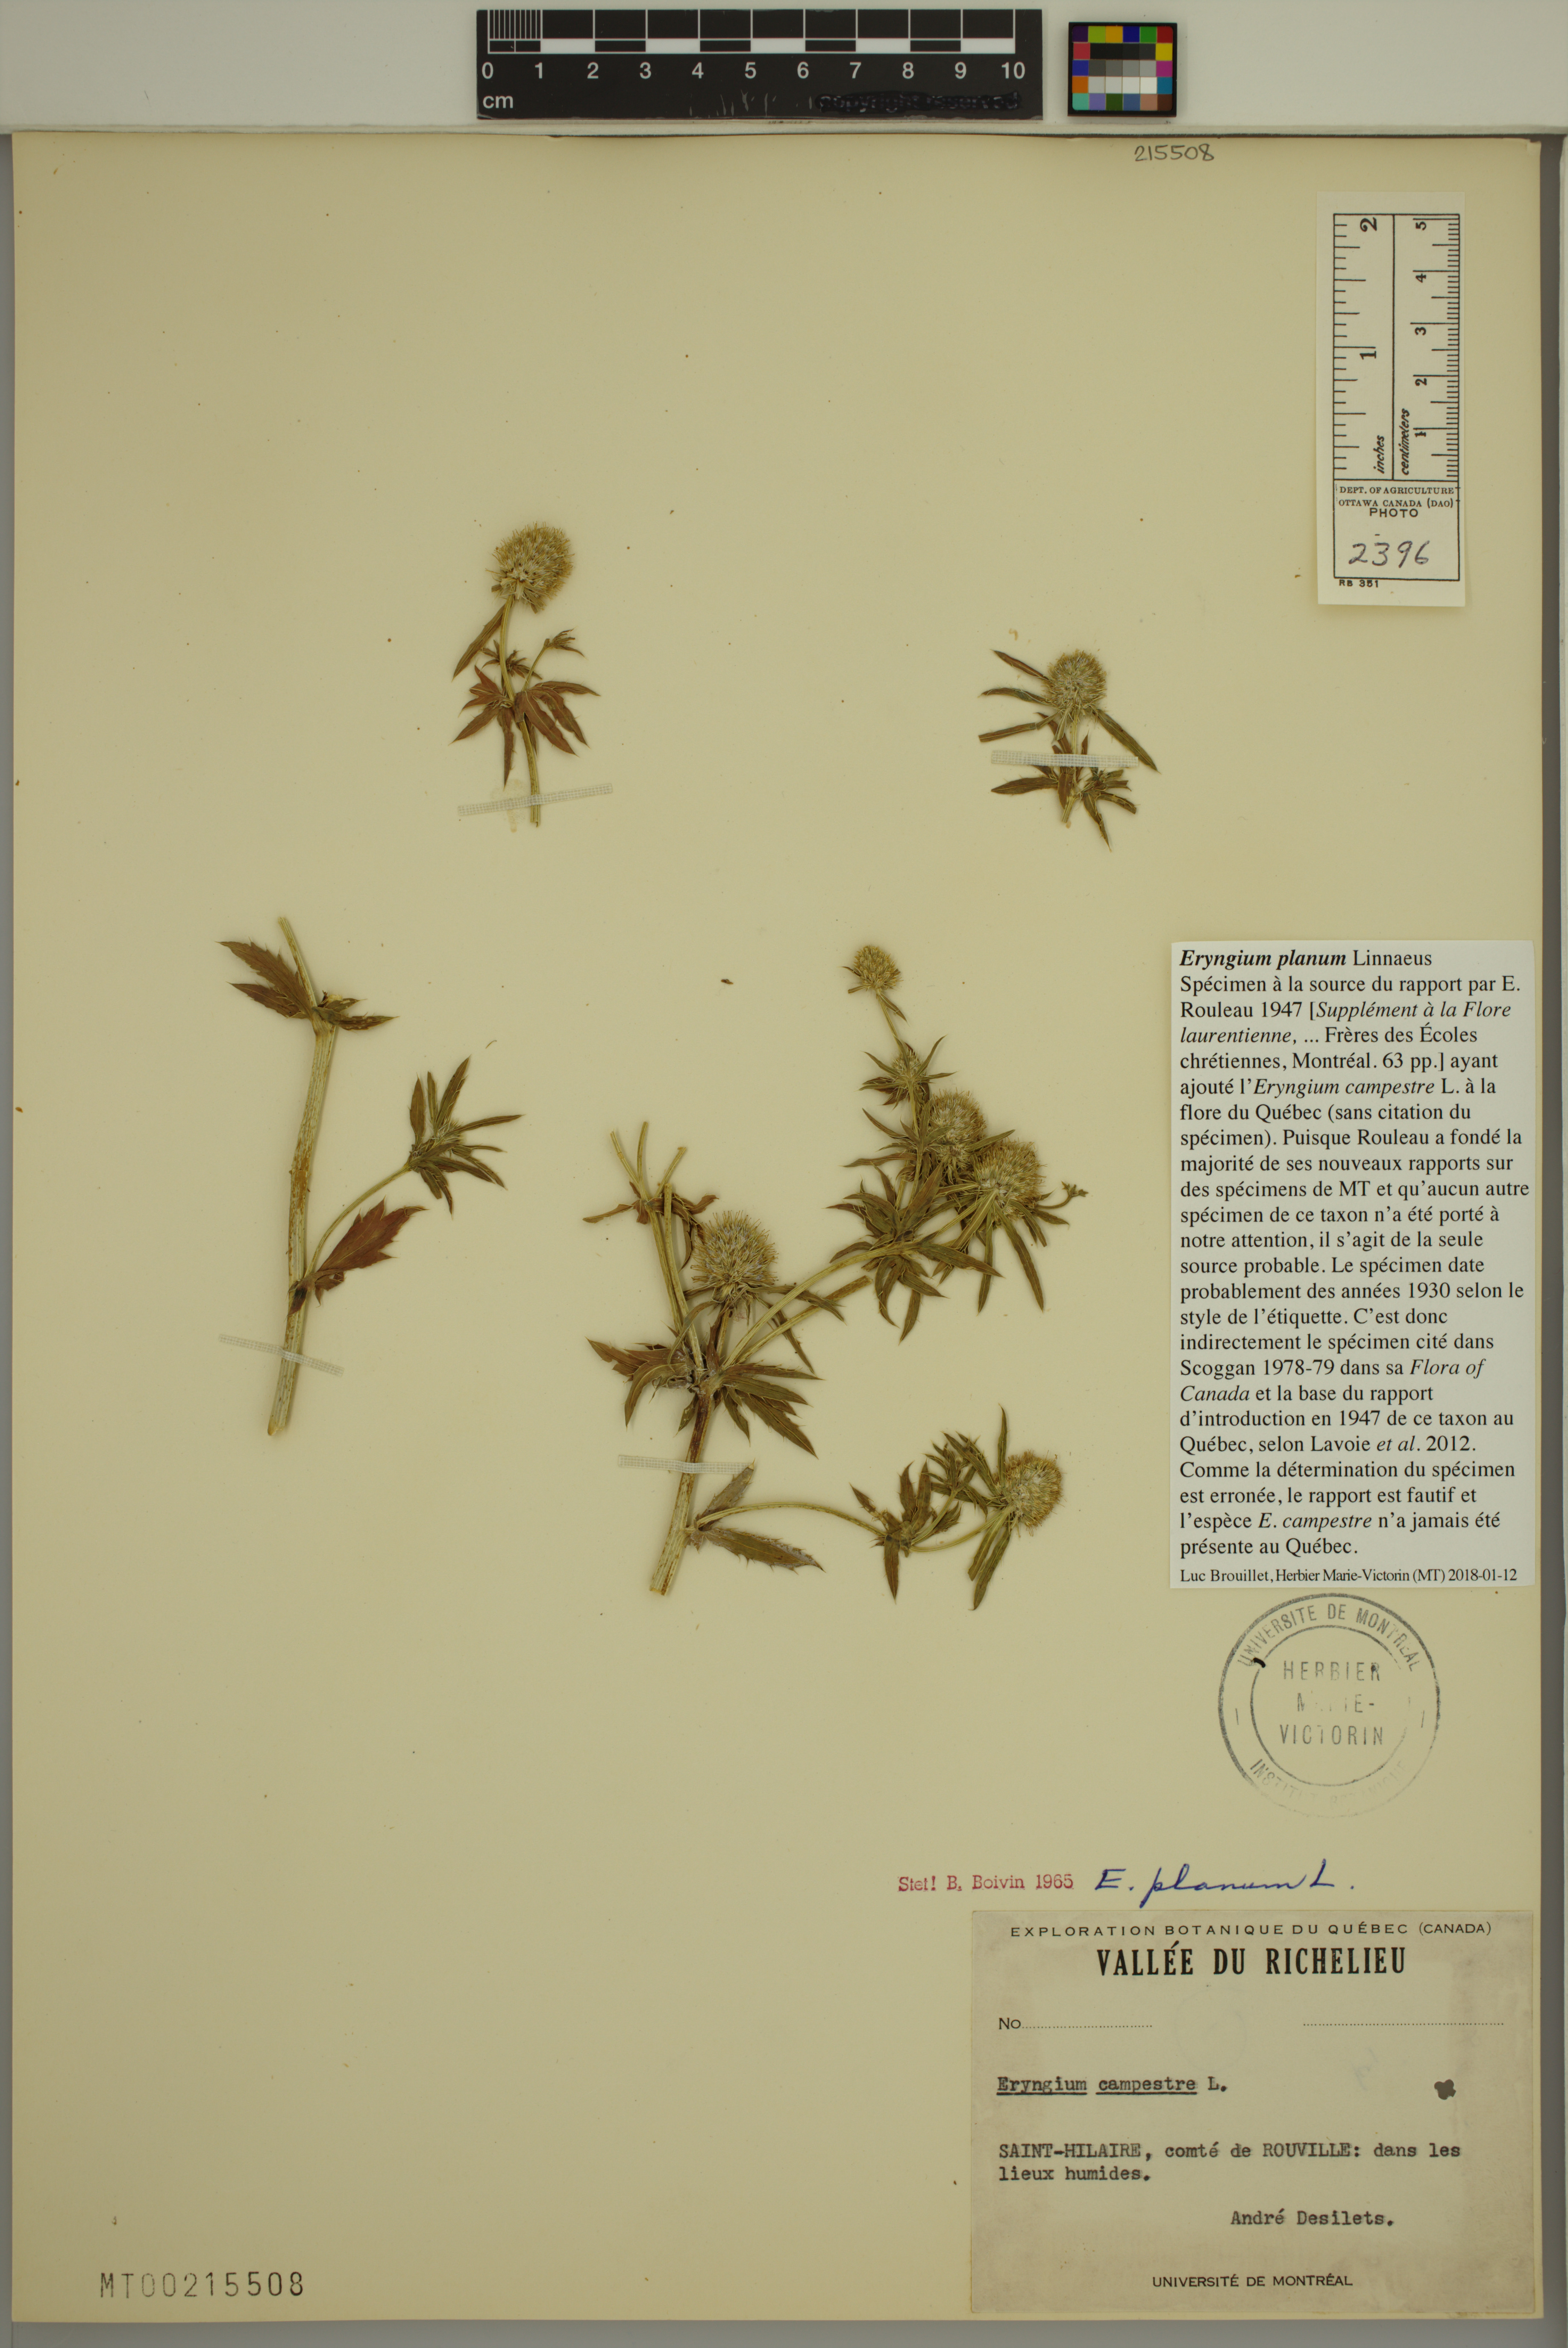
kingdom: Plantae
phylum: Tracheophyta
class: Magnoliopsida
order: Apiales
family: Apiaceae
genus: Eryngium
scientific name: Eryngium planum
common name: Blue eryngo
